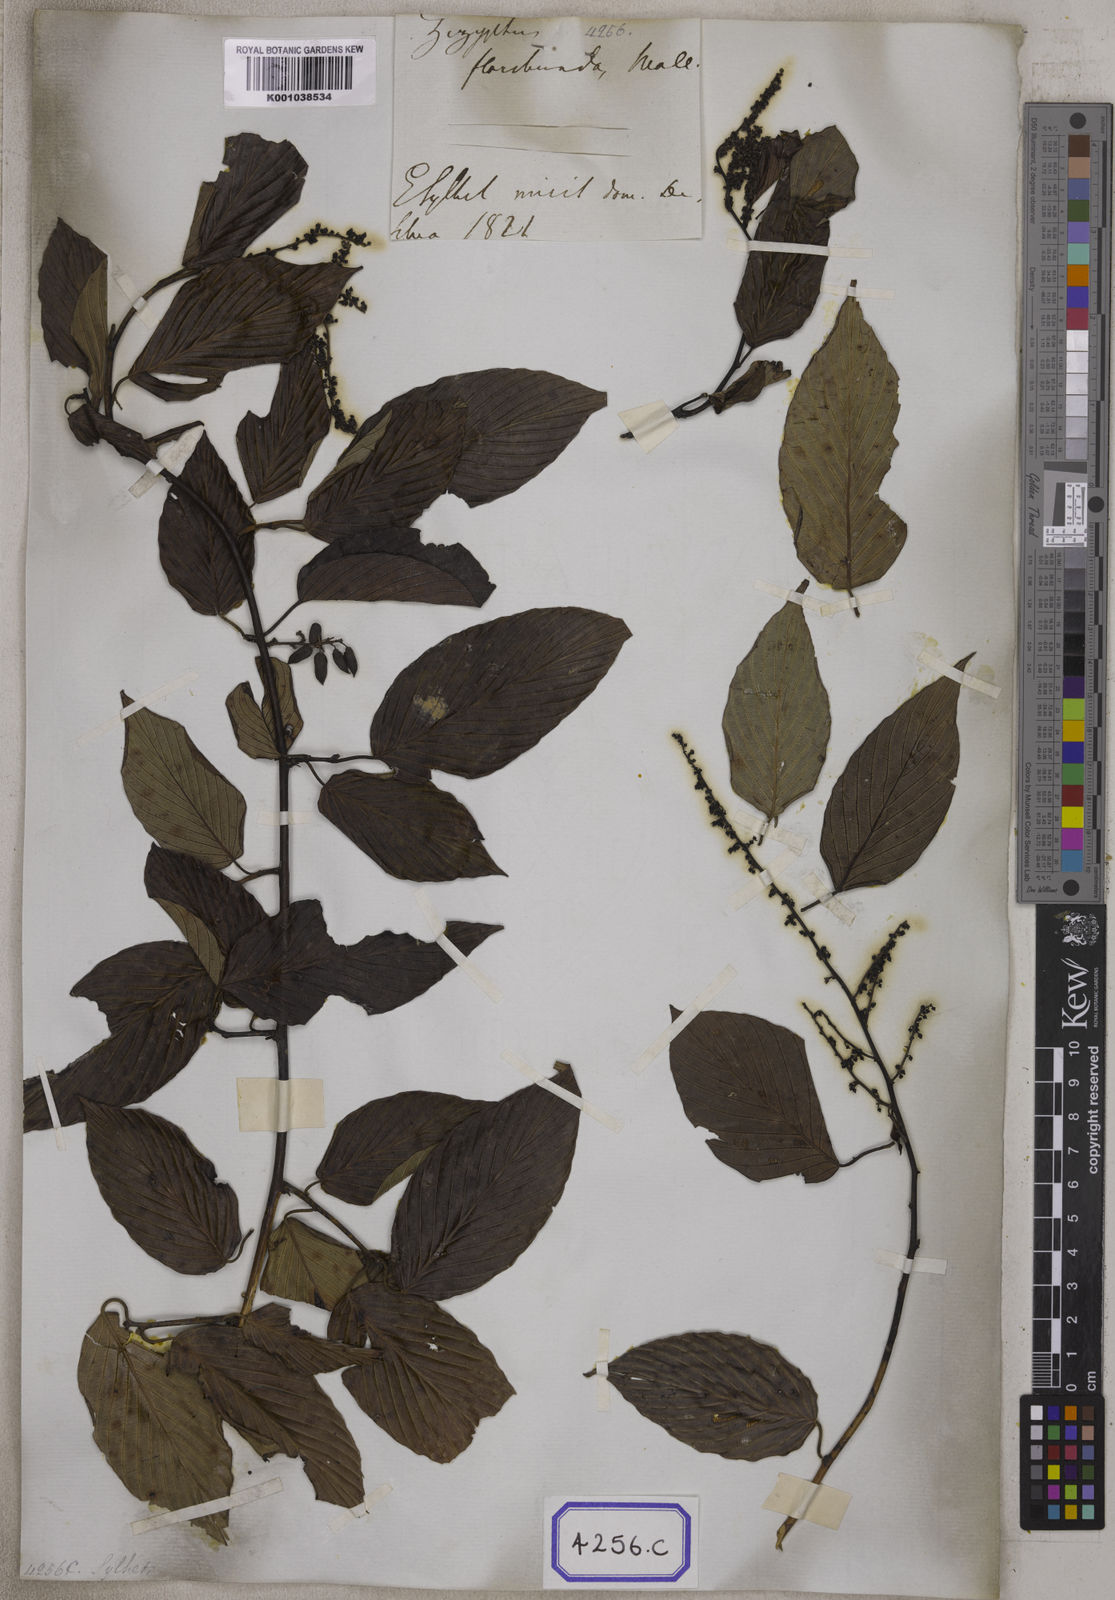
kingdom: Plantae
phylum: Tracheophyta
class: Magnoliopsida
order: Rosales
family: Rhamnaceae
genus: Berchemia
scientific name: Berchemia floribunda
